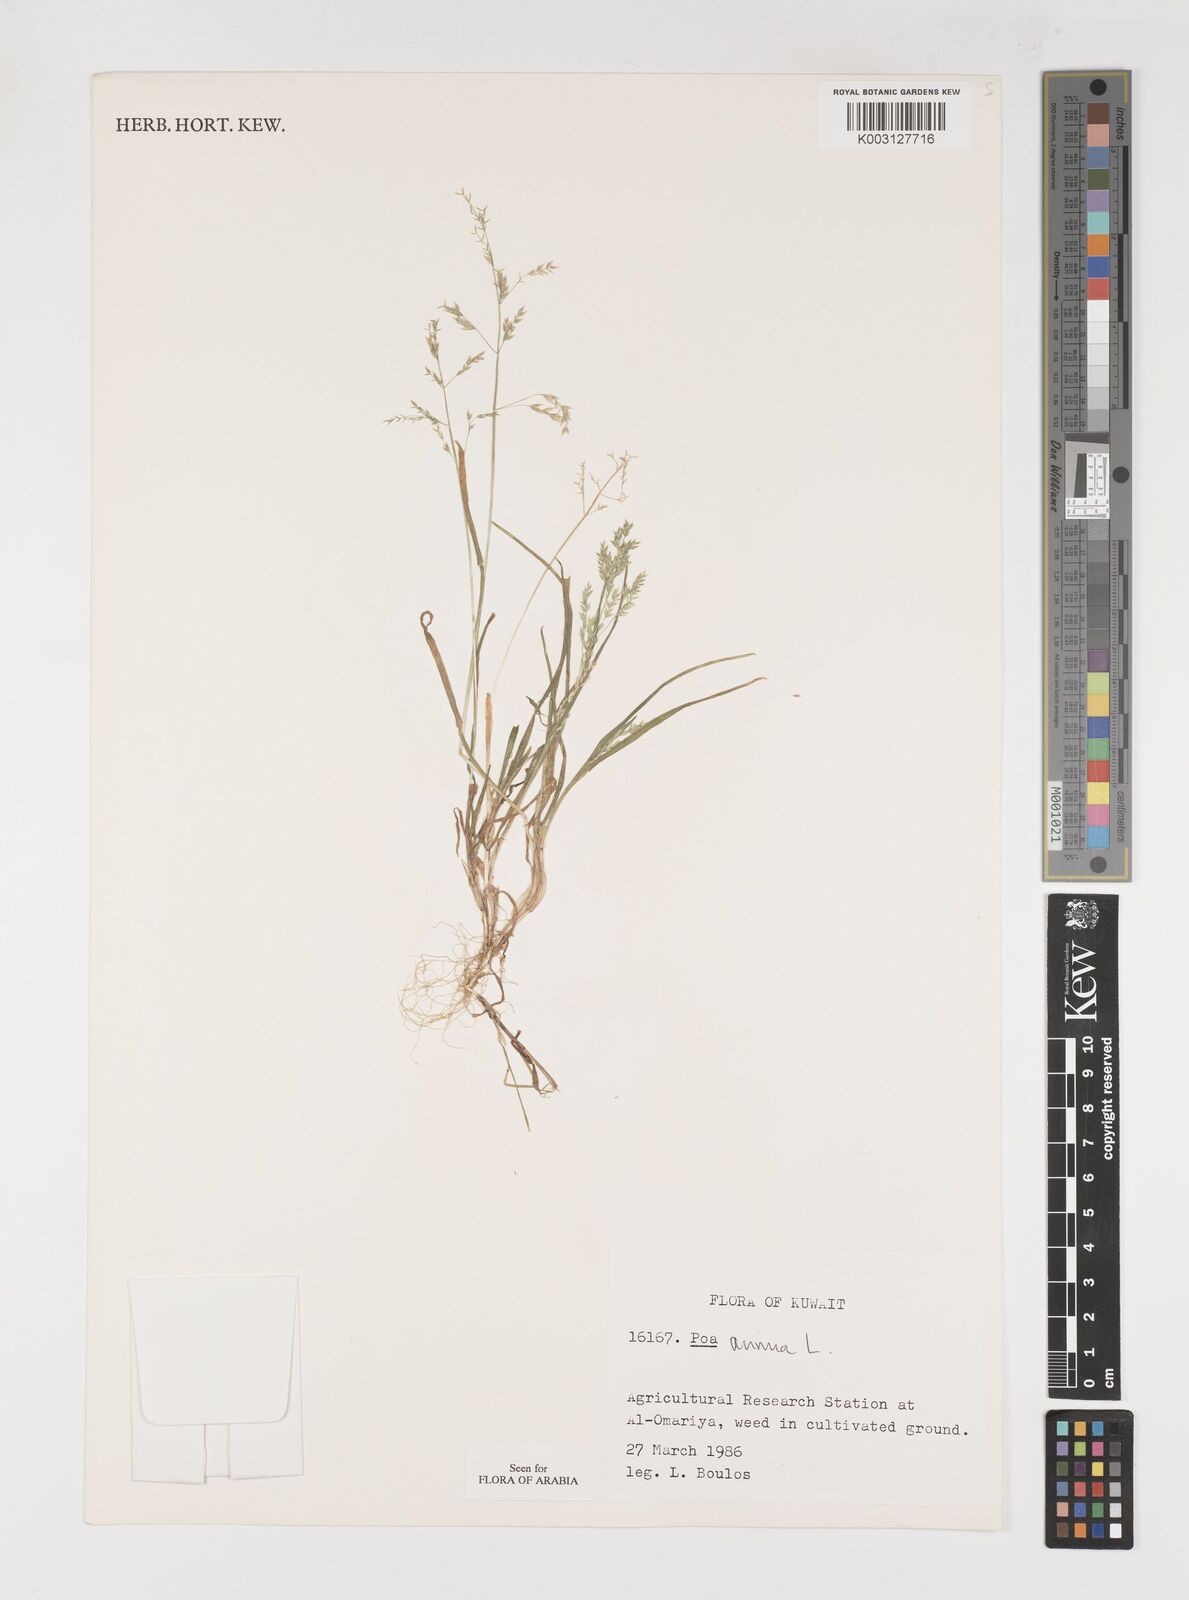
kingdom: Plantae
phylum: Tracheophyta
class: Liliopsida
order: Poales
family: Poaceae
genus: Poa
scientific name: Poa annua
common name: Annual bluegrass
